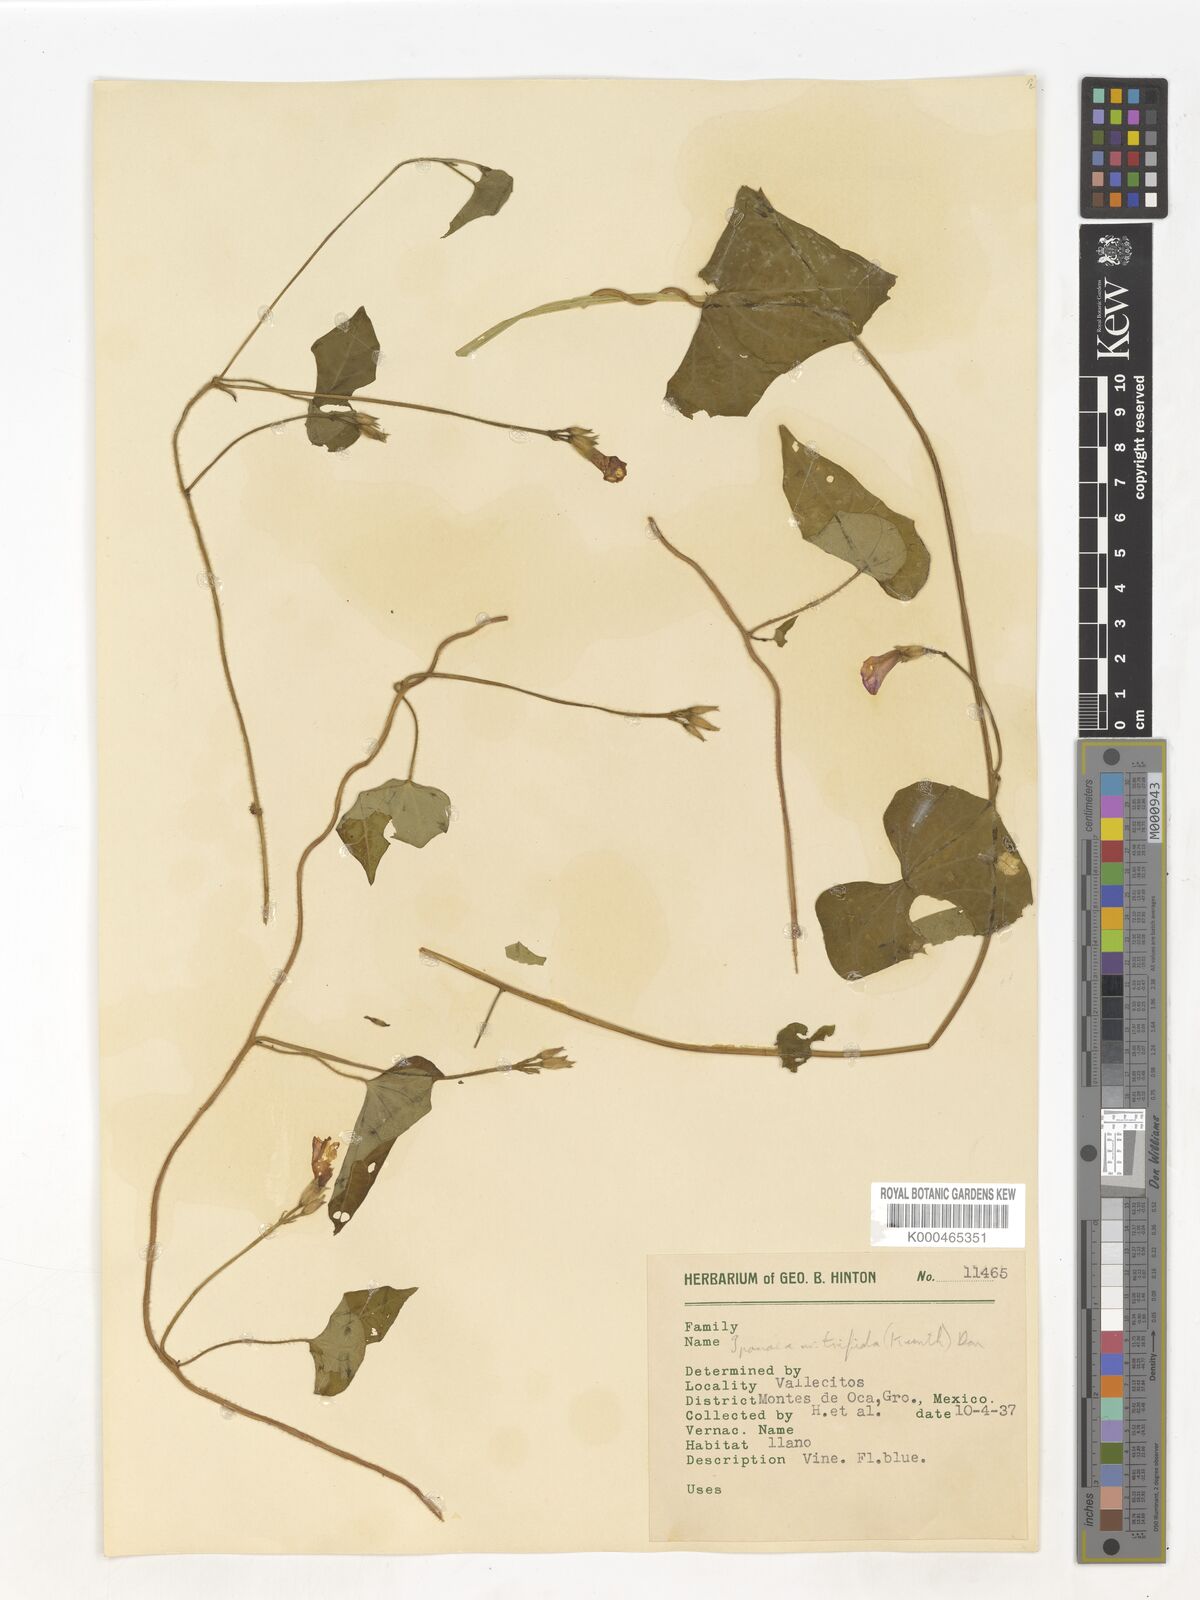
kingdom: Plantae
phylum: Tracheophyta
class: Magnoliopsida
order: Solanales
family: Convolvulaceae
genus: Ipomoea
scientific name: Ipomoea trifida
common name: Cotton morningglory
